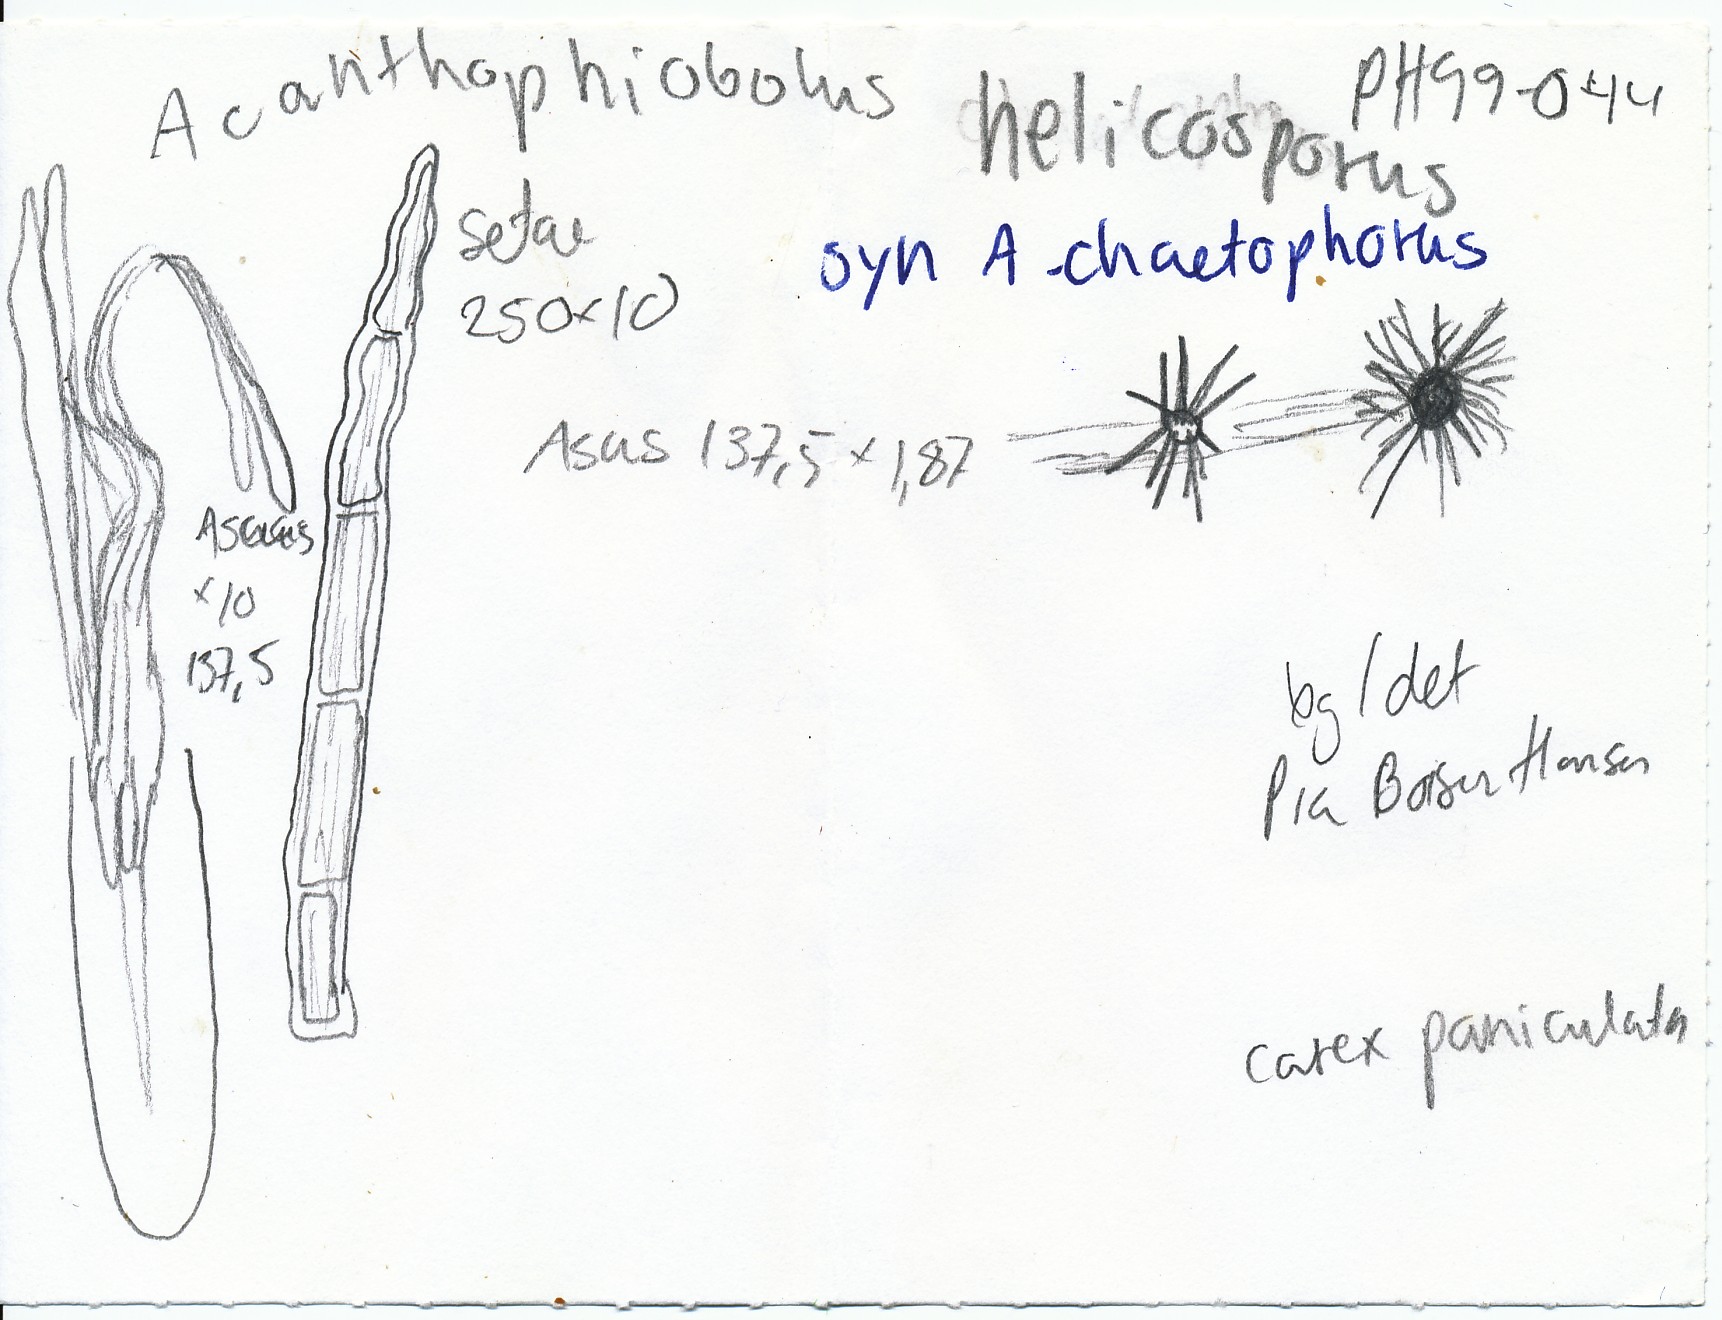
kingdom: Fungi
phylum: Ascomycota
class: Dothideomycetes
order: Tubeufiales
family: Tubeufiaceae
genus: Acanthophiobolus
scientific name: Acanthophiobolus helicosporus
